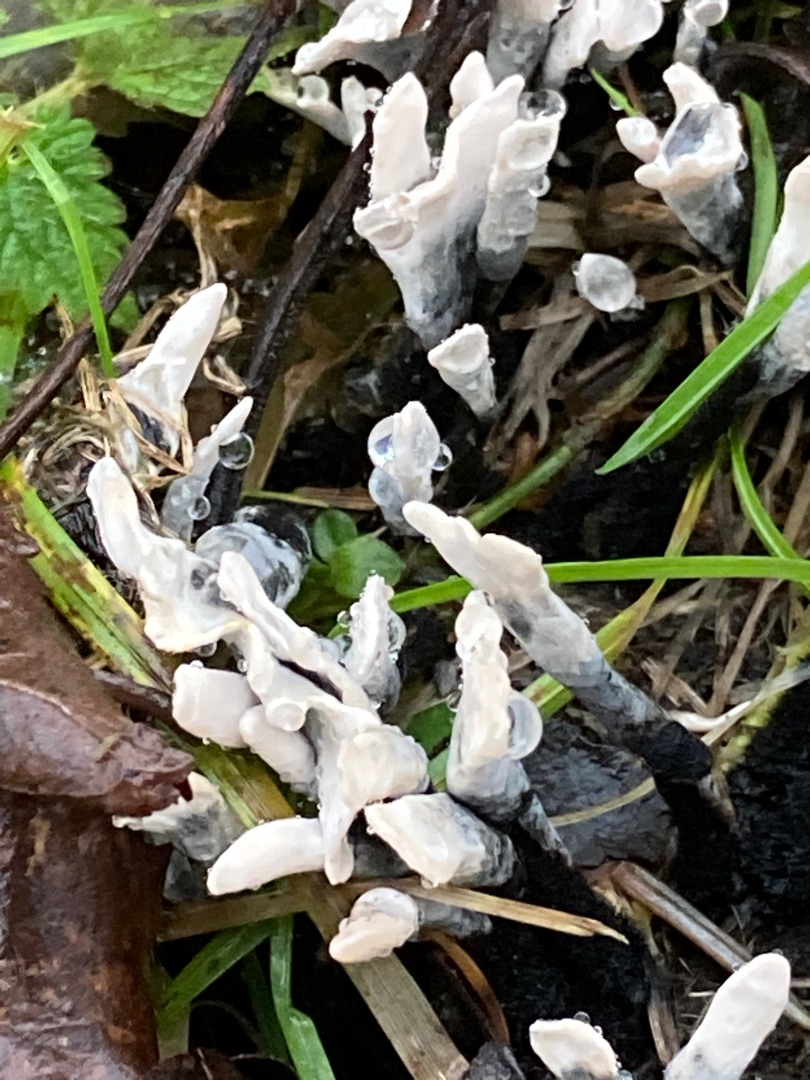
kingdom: Fungi
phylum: Ascomycota
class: Sordariomycetes
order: Xylariales
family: Xylariaceae
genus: Xylaria
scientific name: Xylaria hypoxylon
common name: Grenet stødsvamp
